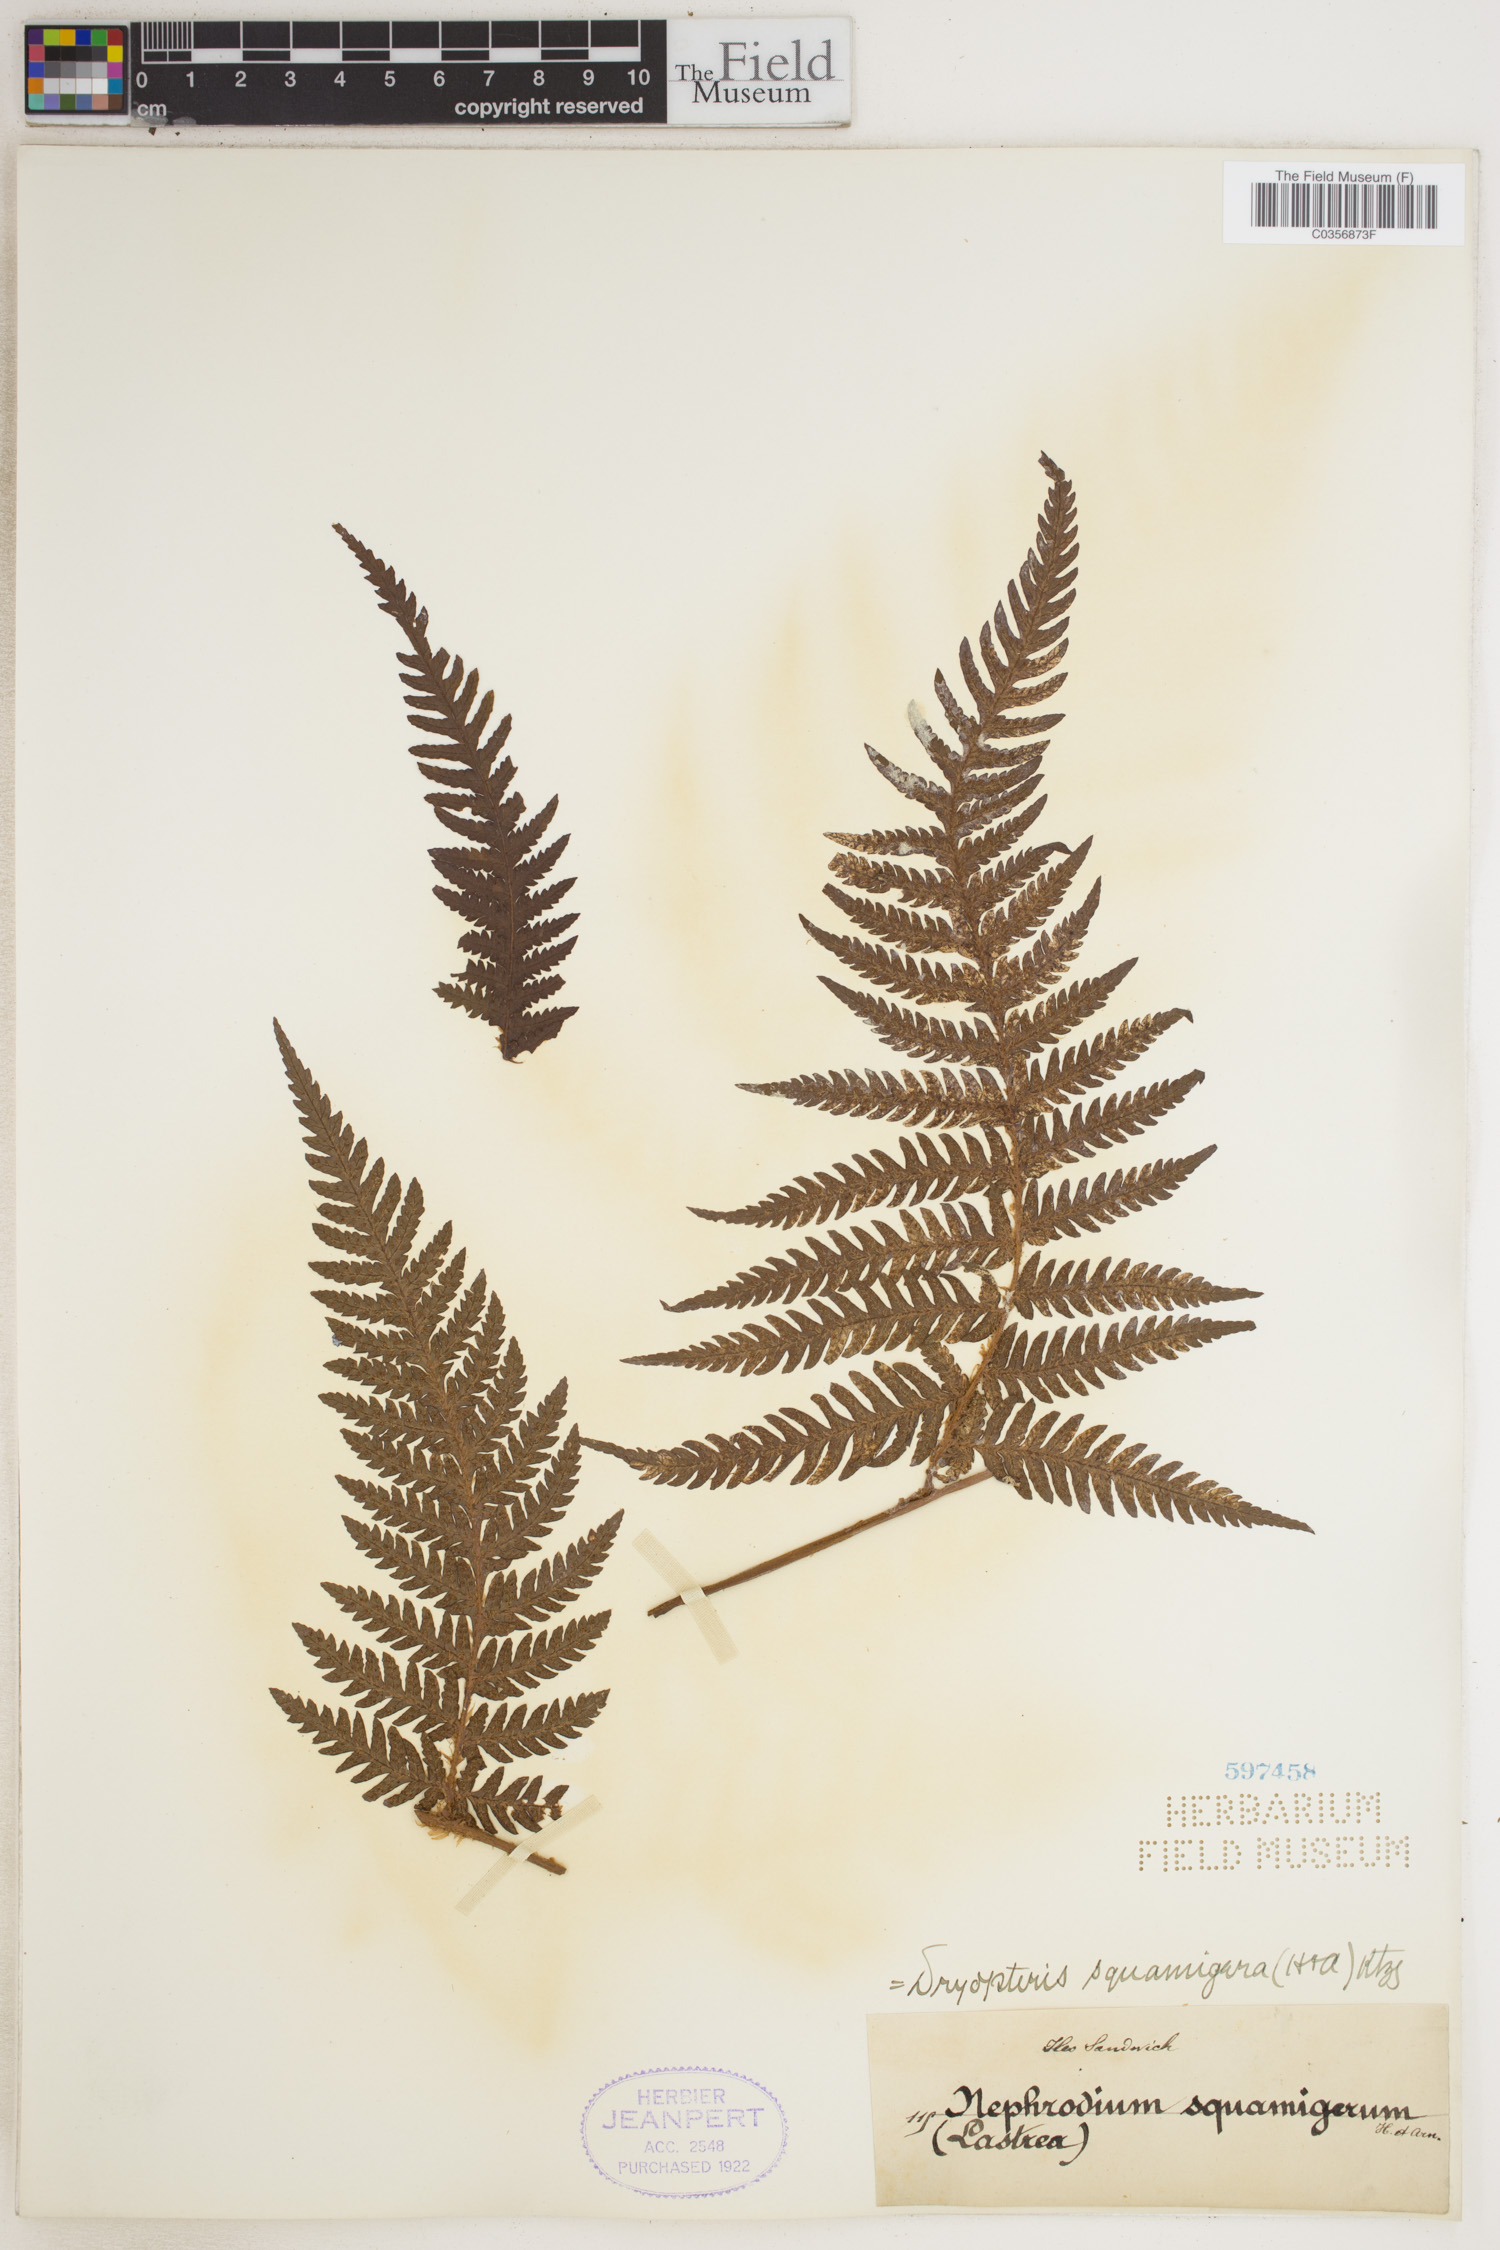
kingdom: Plantae
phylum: Tracheophyta
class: Polypodiopsida
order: Polypodiales
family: Dryopteridaceae
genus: Ctenitis
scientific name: Ctenitis squamigera
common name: Pacific lacefern
